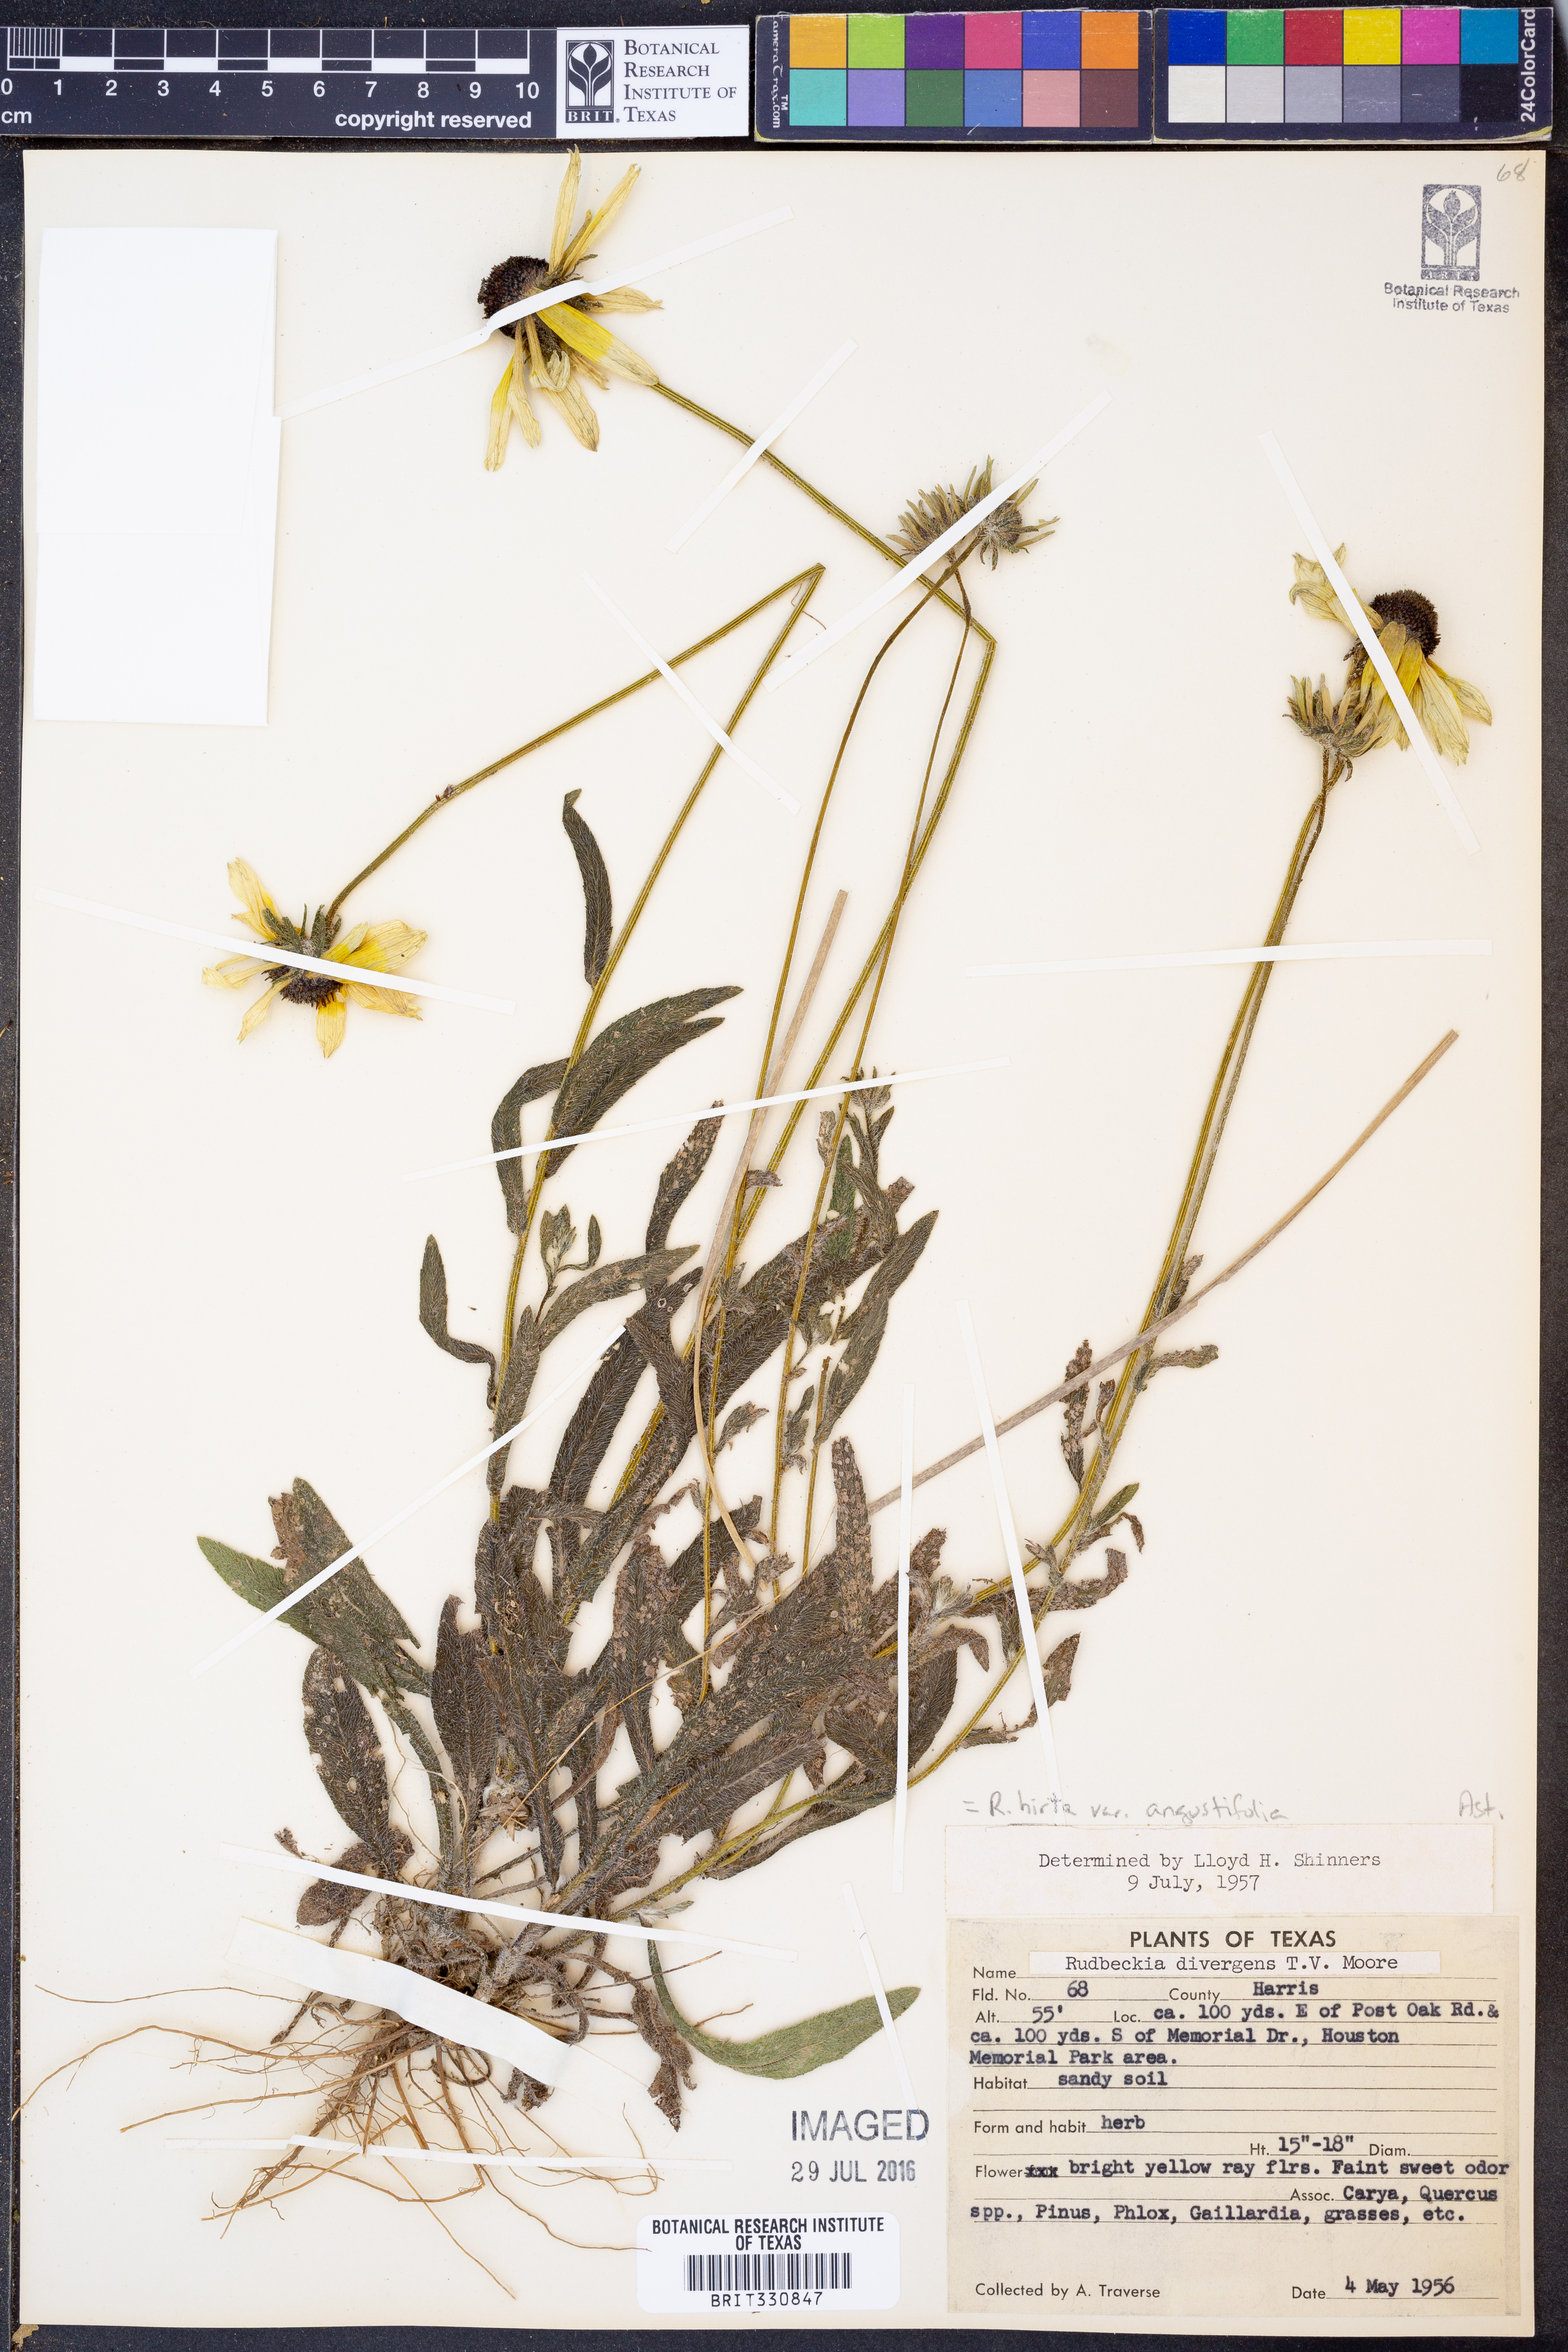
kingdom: Plantae
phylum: Tracheophyta
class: Magnoliopsida
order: Asterales
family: Asteraceae
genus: Rudbeckia
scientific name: Rudbeckia hirta
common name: Black-eyed-susan
